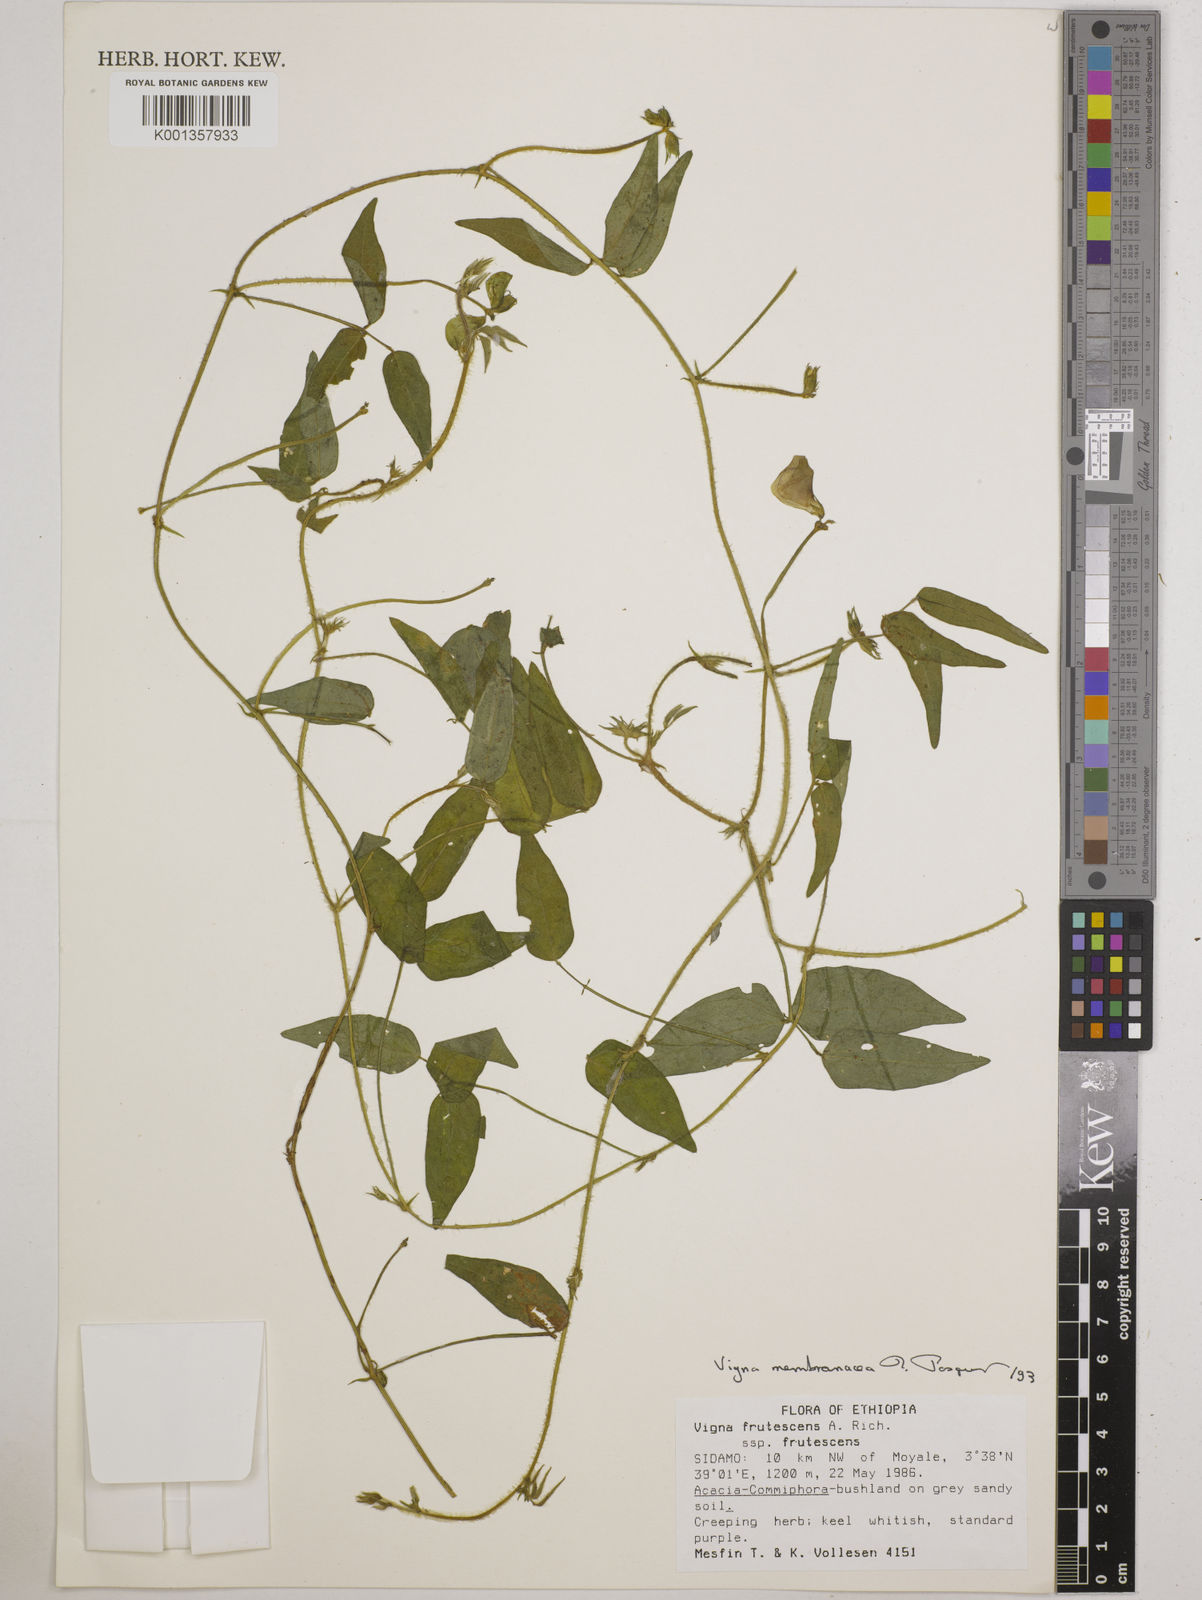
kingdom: Plantae
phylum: Tracheophyta
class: Magnoliopsida
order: Fabales
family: Fabaceae
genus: Vigna
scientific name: Vigna membranacea
